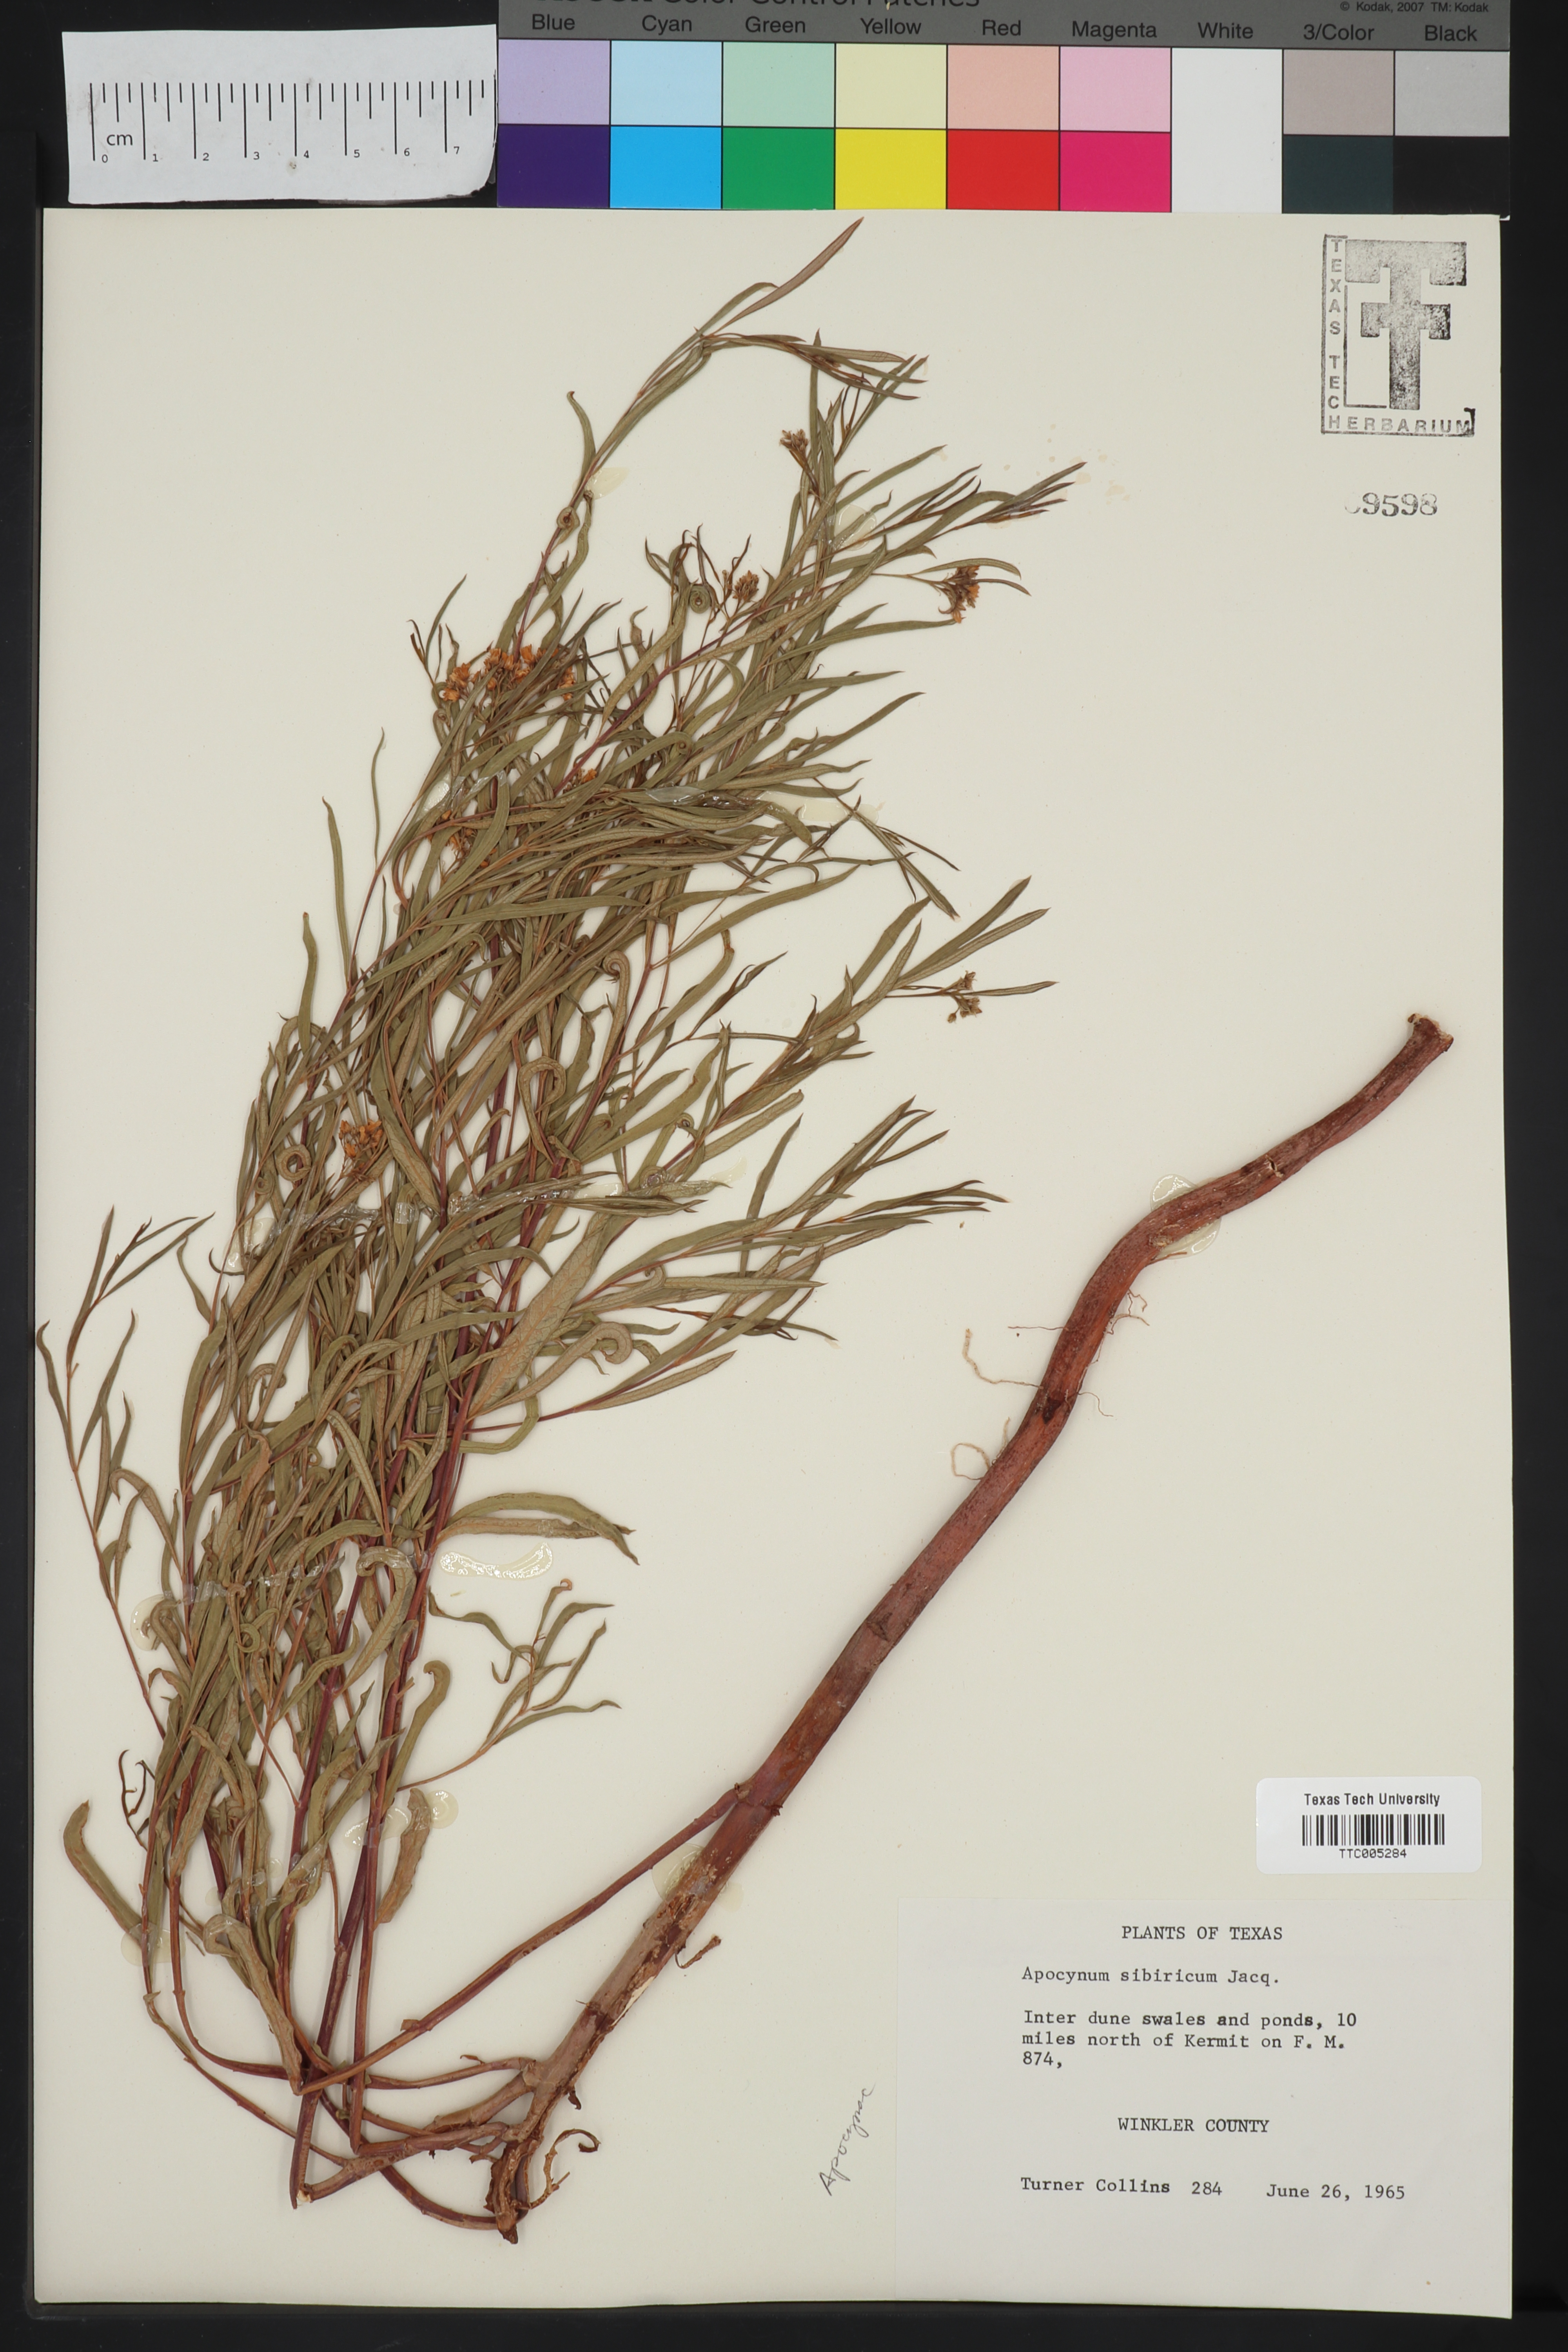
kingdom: Plantae
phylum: Tracheophyta
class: Magnoliopsida
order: Gentianales
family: Apocynaceae
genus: Apocynum
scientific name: Apocynum cannabinum
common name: Hemp dogbane
